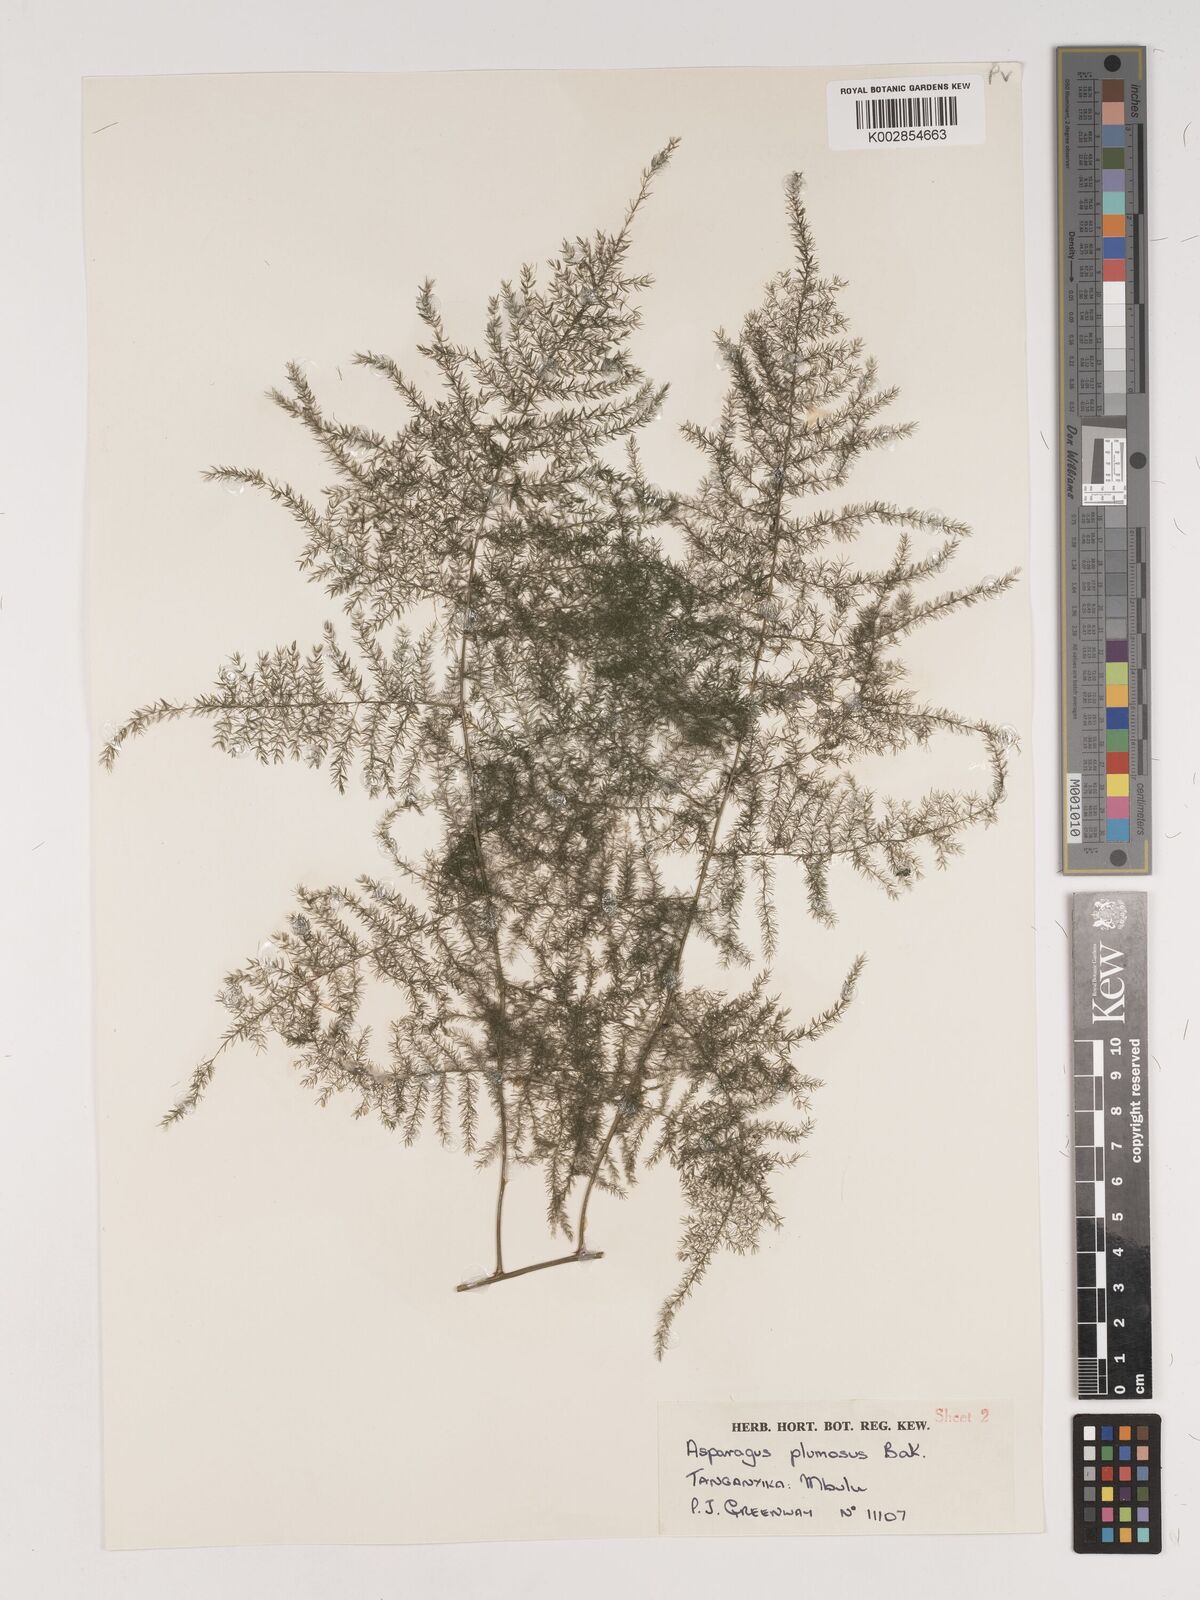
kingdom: Plantae
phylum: Tracheophyta
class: Liliopsida
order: Asparagales
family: Asparagaceae
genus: Asparagus
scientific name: Asparagus setaceus
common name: Common asparagus fern
